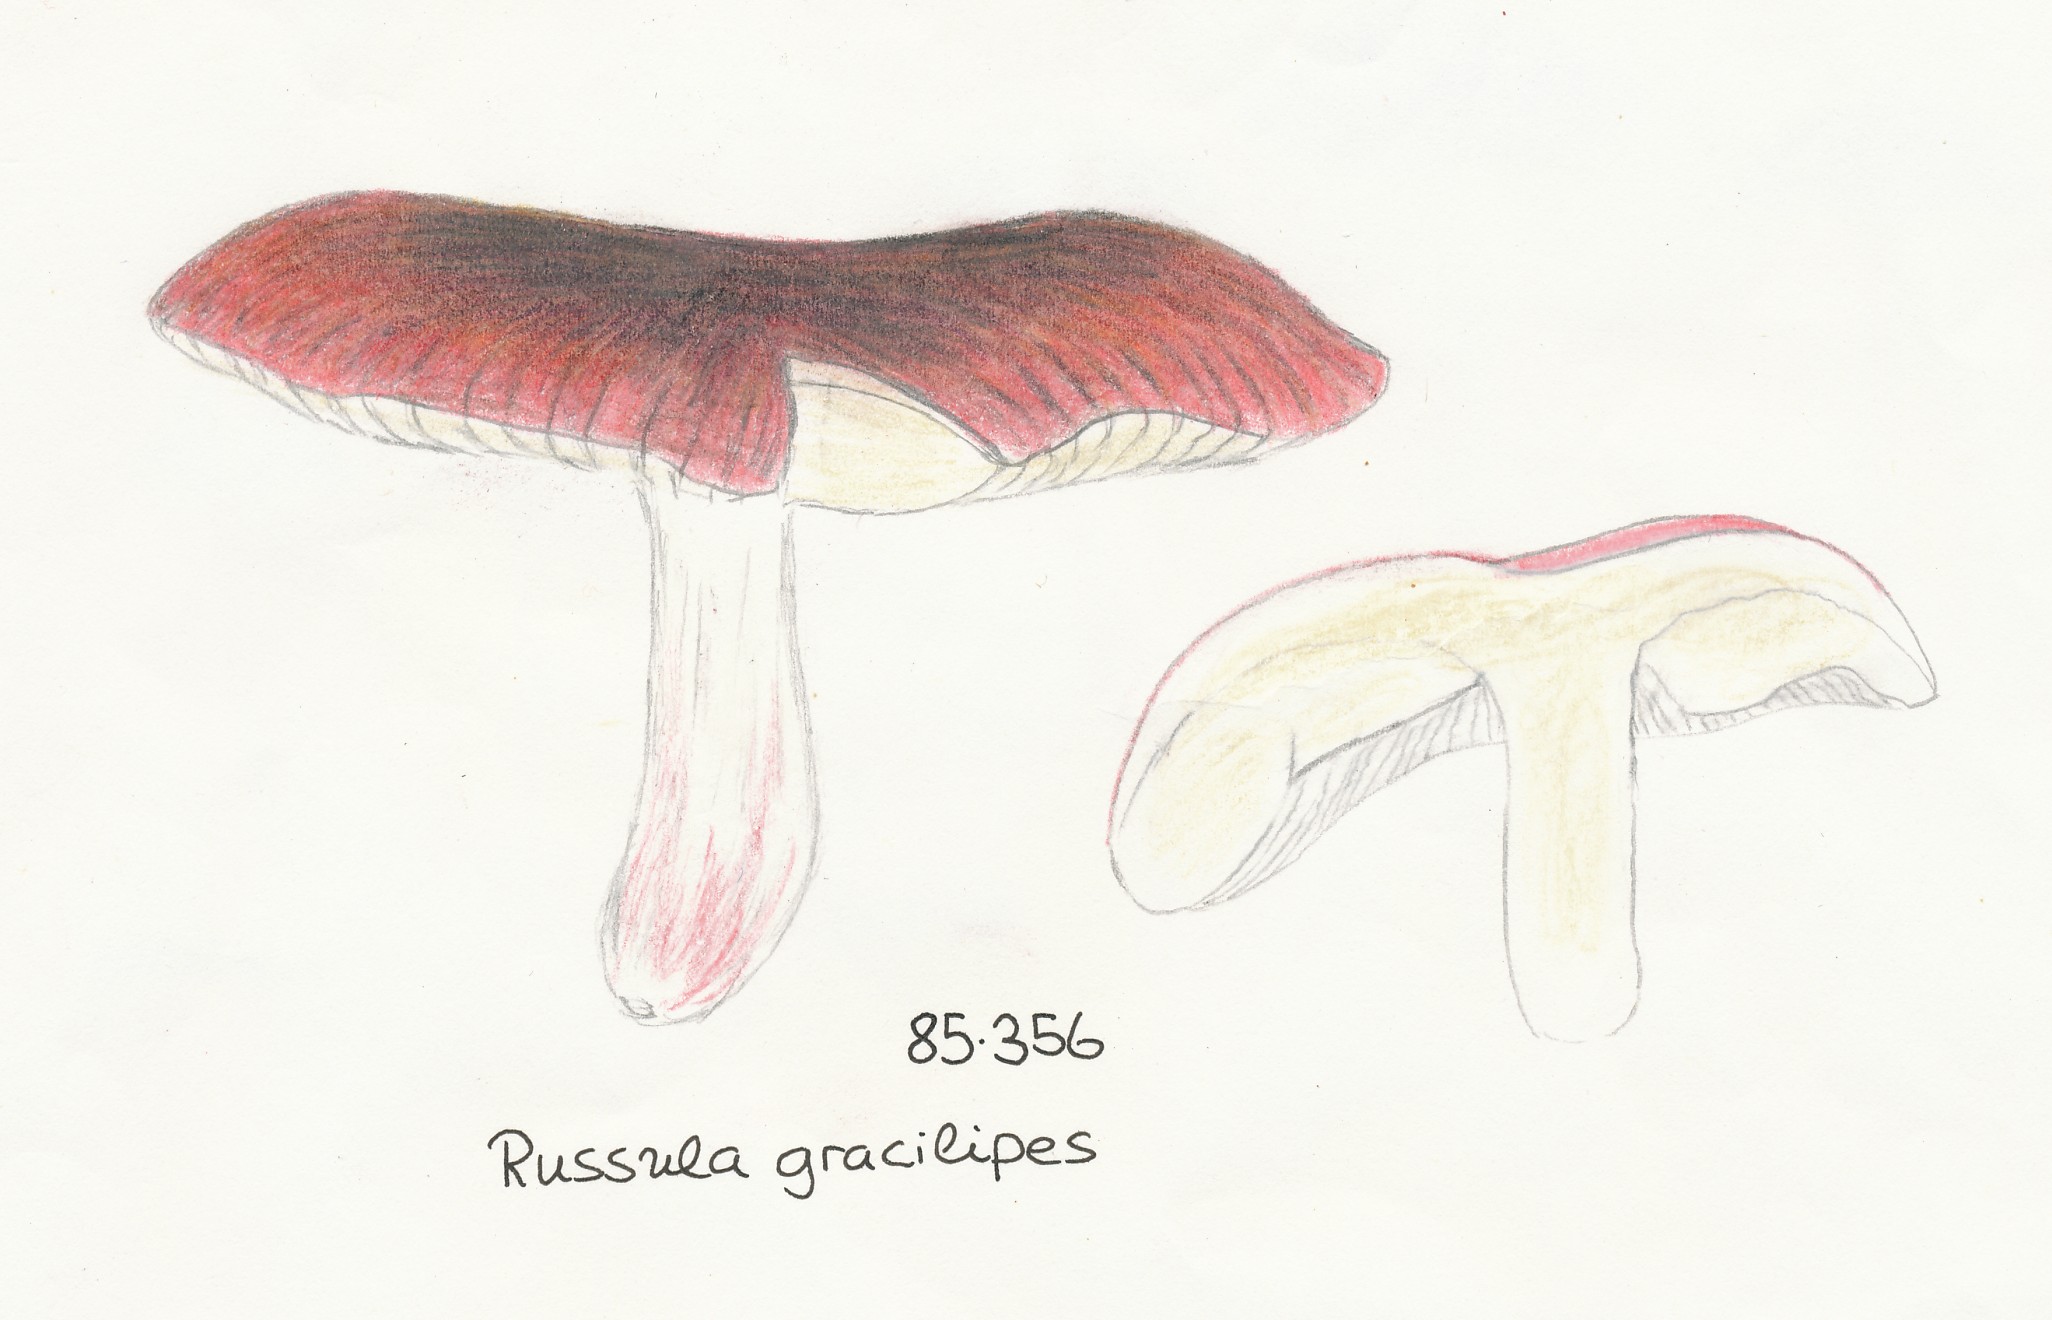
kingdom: Fungi
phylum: Basidiomycota
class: Agaricomycetes
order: Russulales
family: Russulaceae
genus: Russula
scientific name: Russula graveolens
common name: bugtet skørhat
